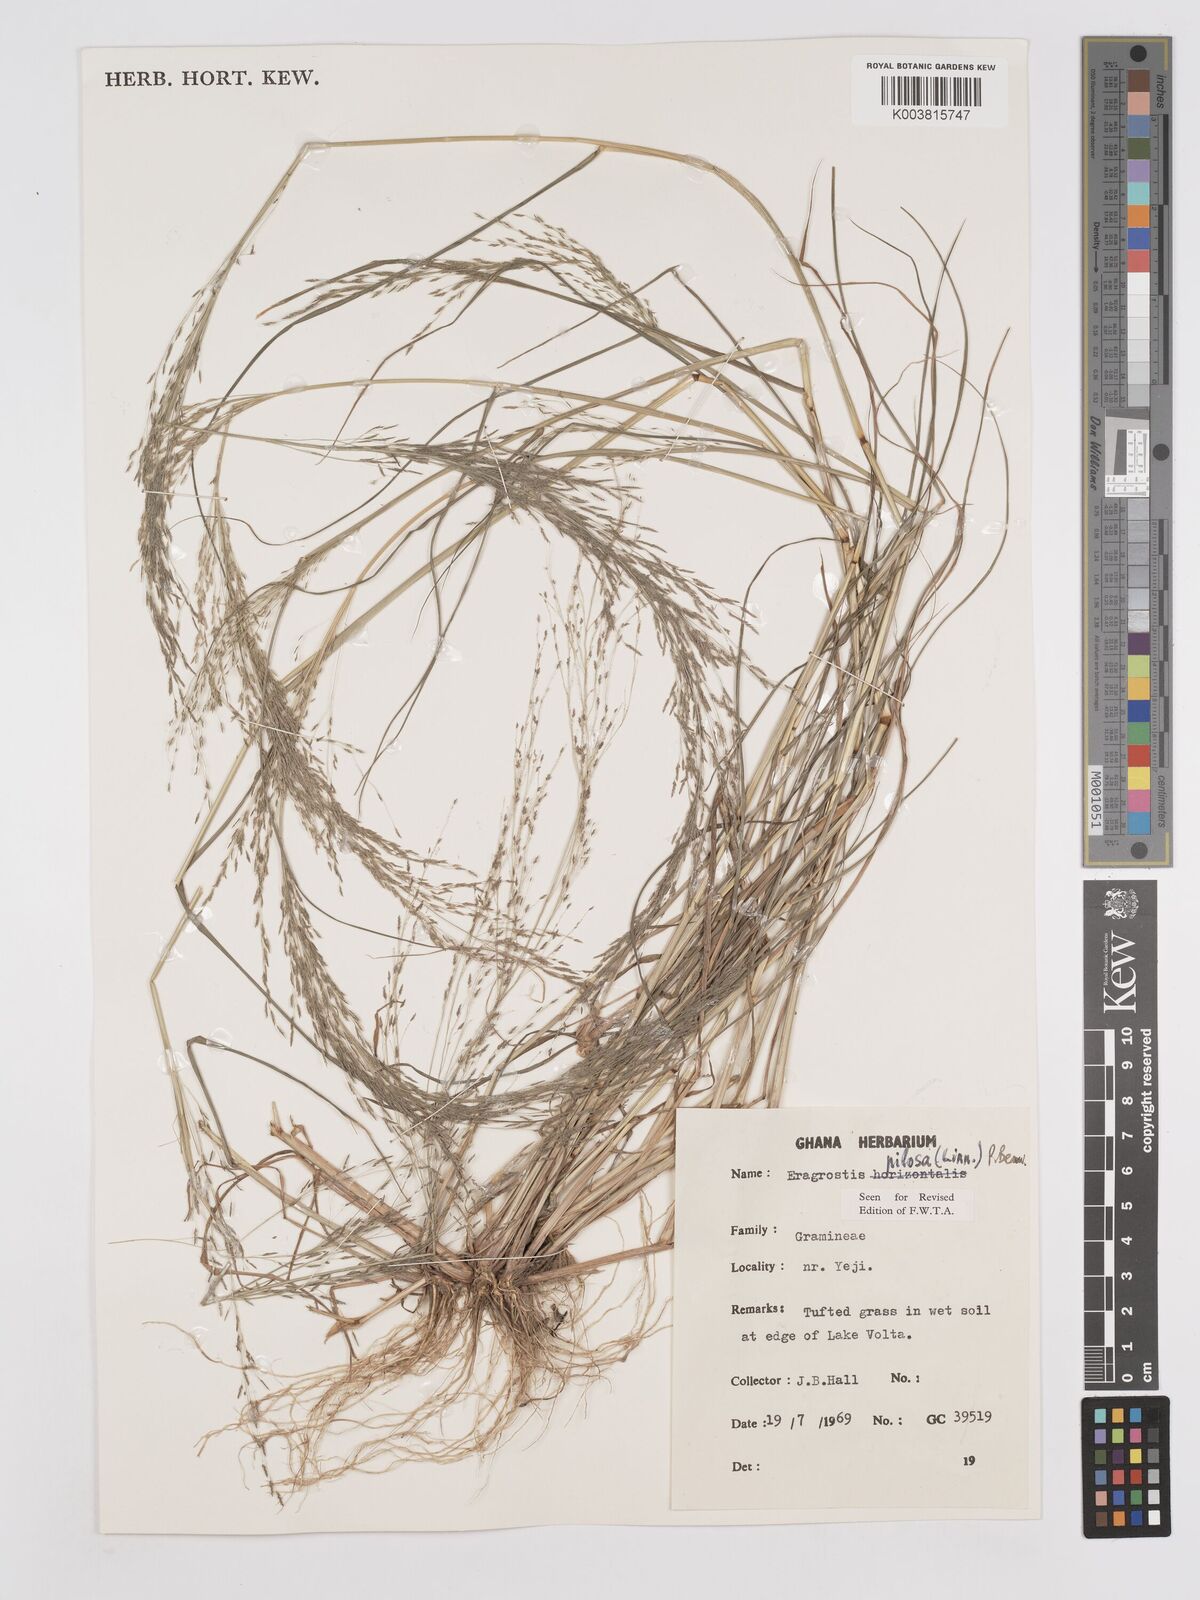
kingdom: Plantae
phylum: Tracheophyta
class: Liliopsida
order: Poales
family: Poaceae
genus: Eragrostis
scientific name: Eragrostis pilosa
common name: Indian lovegrass
